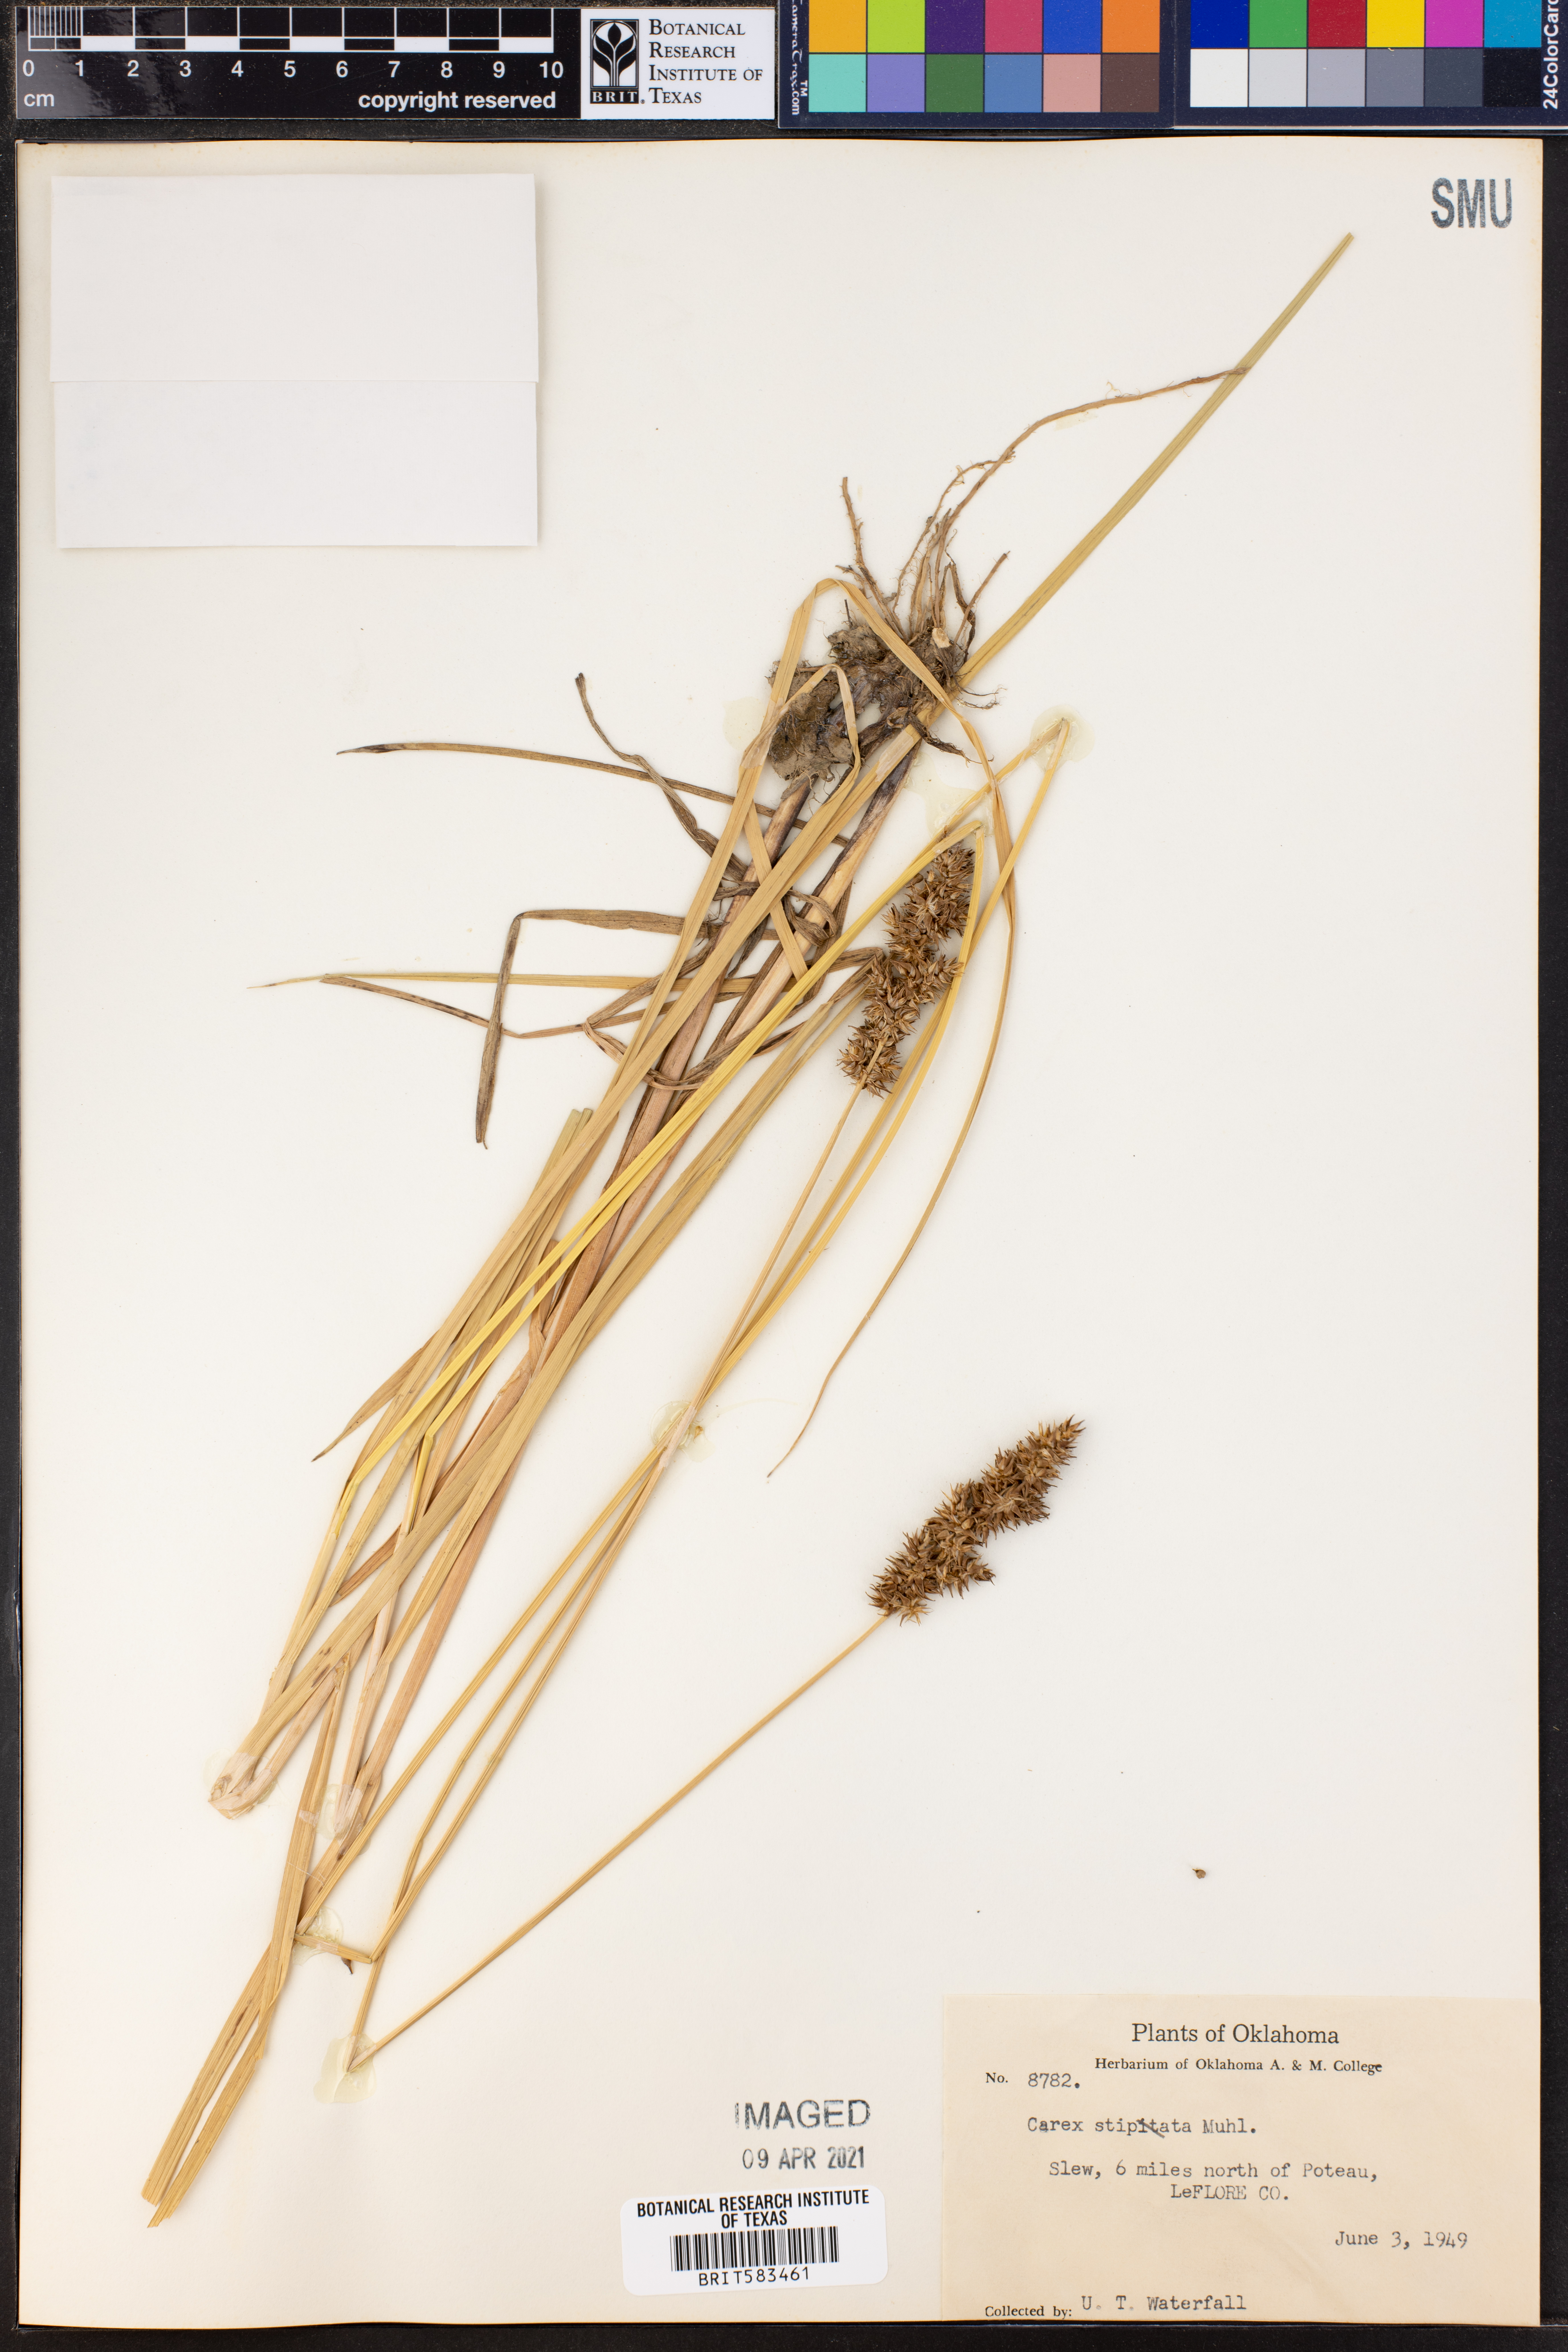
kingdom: Plantae
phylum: Tracheophyta
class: Liliopsida
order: Poales
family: Cyperaceae
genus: Carex
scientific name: Carex stipata
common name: Awl-fruited sedge
